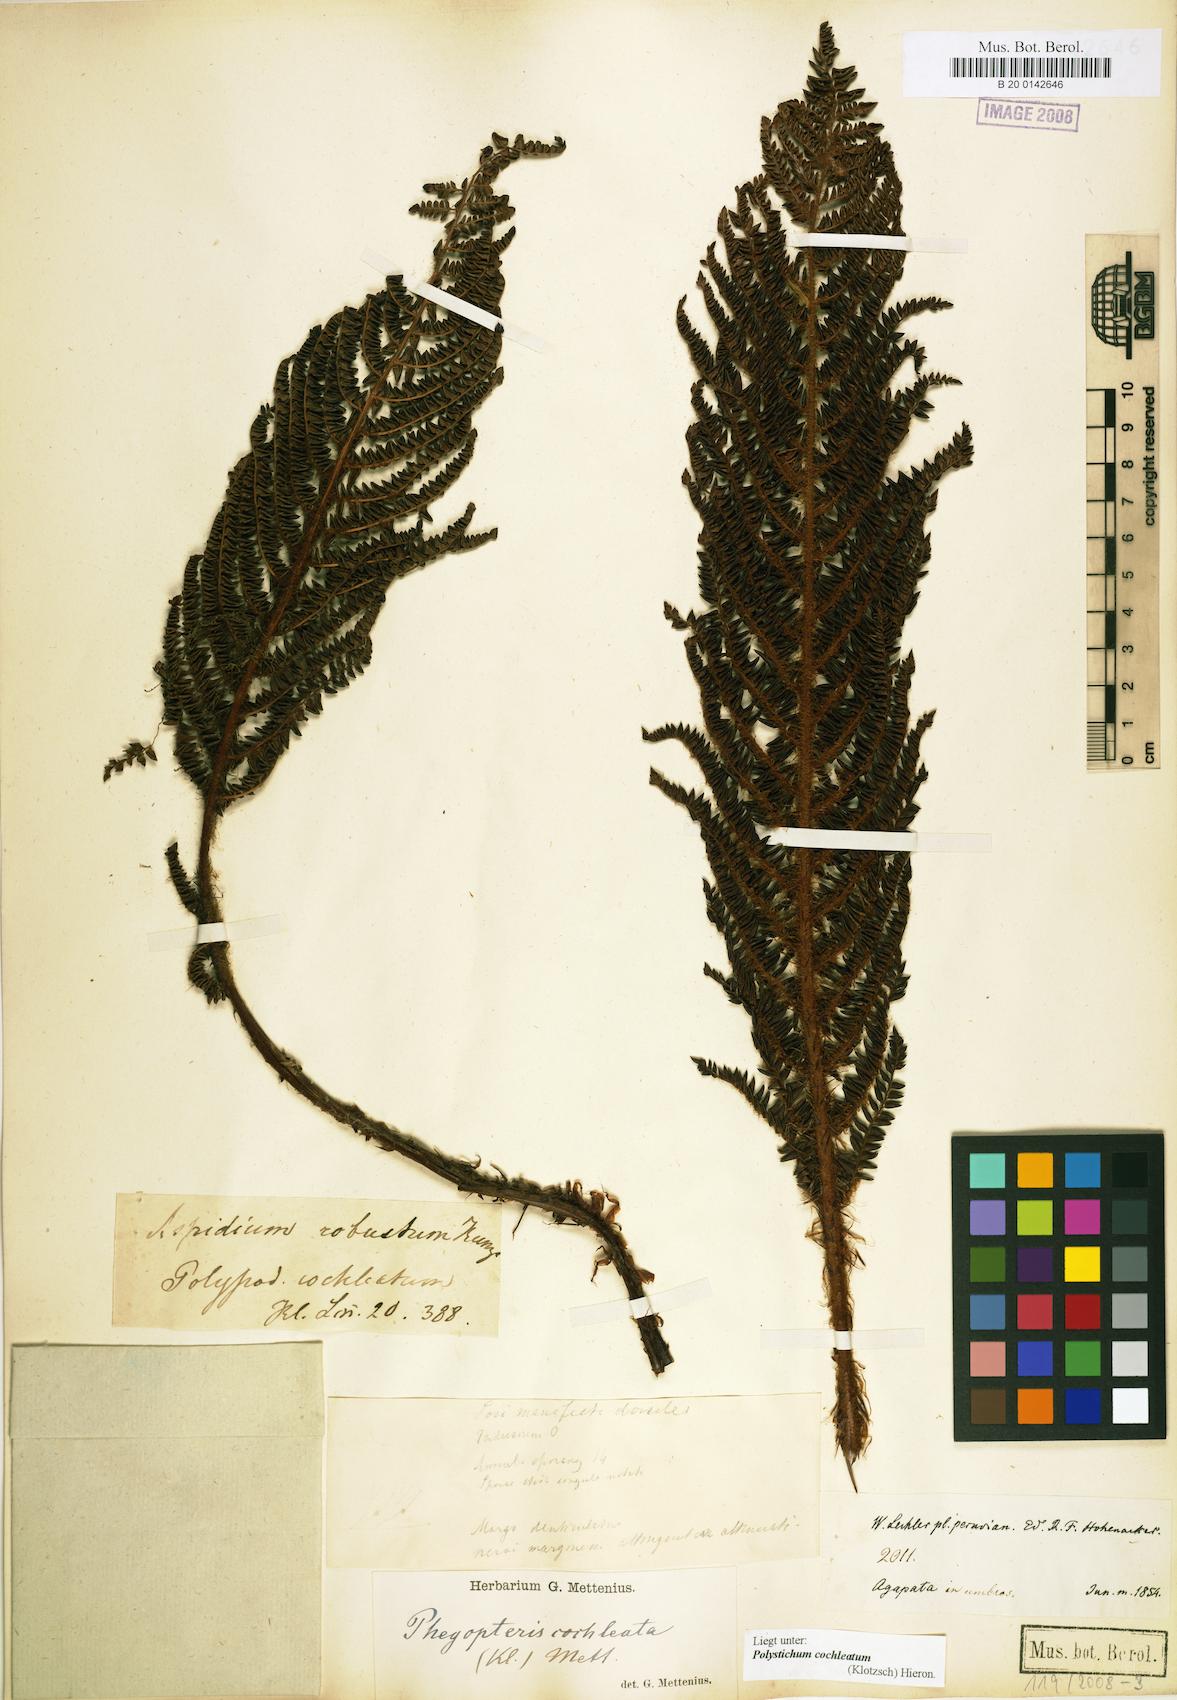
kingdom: Plantae
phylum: Tracheophyta
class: Polypodiopsida
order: Polypodiales
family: Dryopteridaceae
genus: Polystichum
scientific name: Polystichum cochleatum
